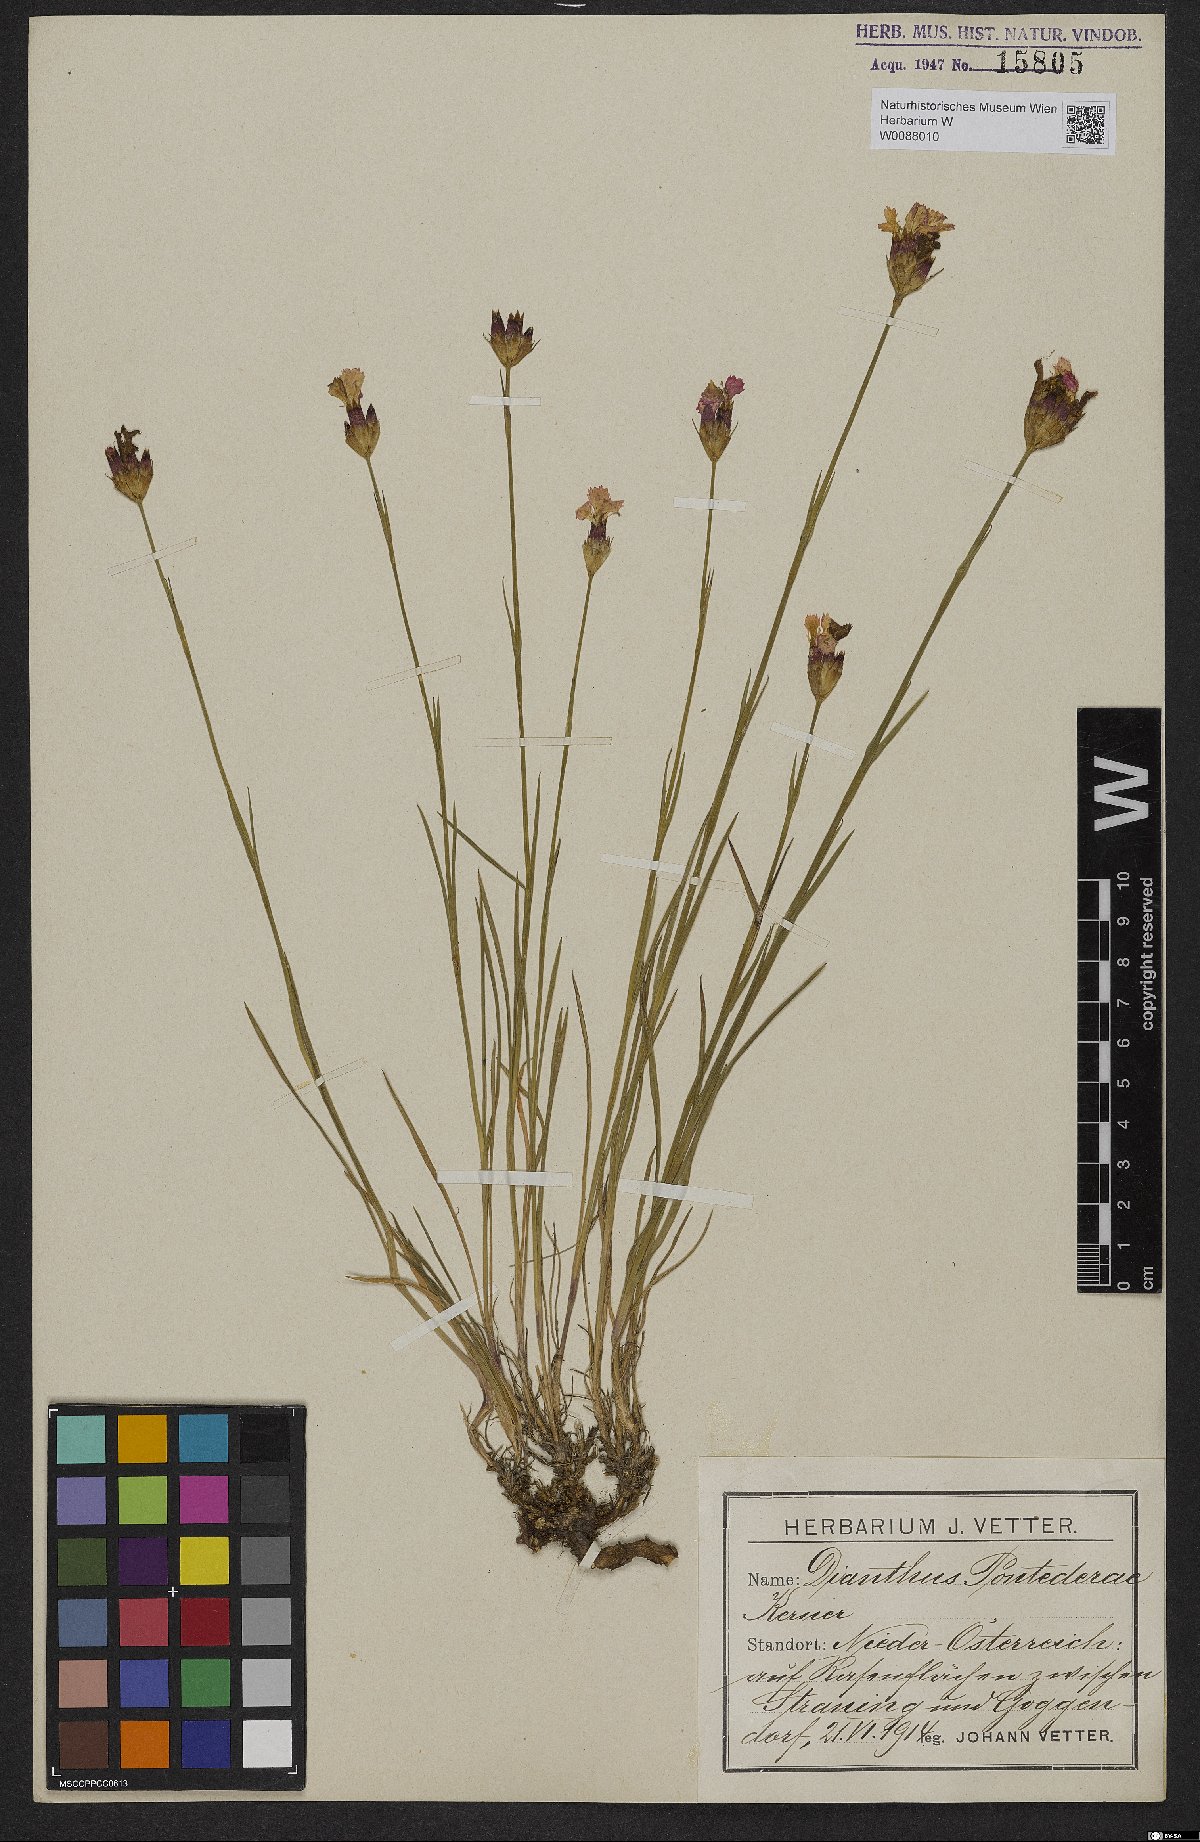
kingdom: Plantae
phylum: Tracheophyta
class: Magnoliopsida
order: Caryophyllales
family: Caryophyllaceae
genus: Dianthus
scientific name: Dianthus pontederae
